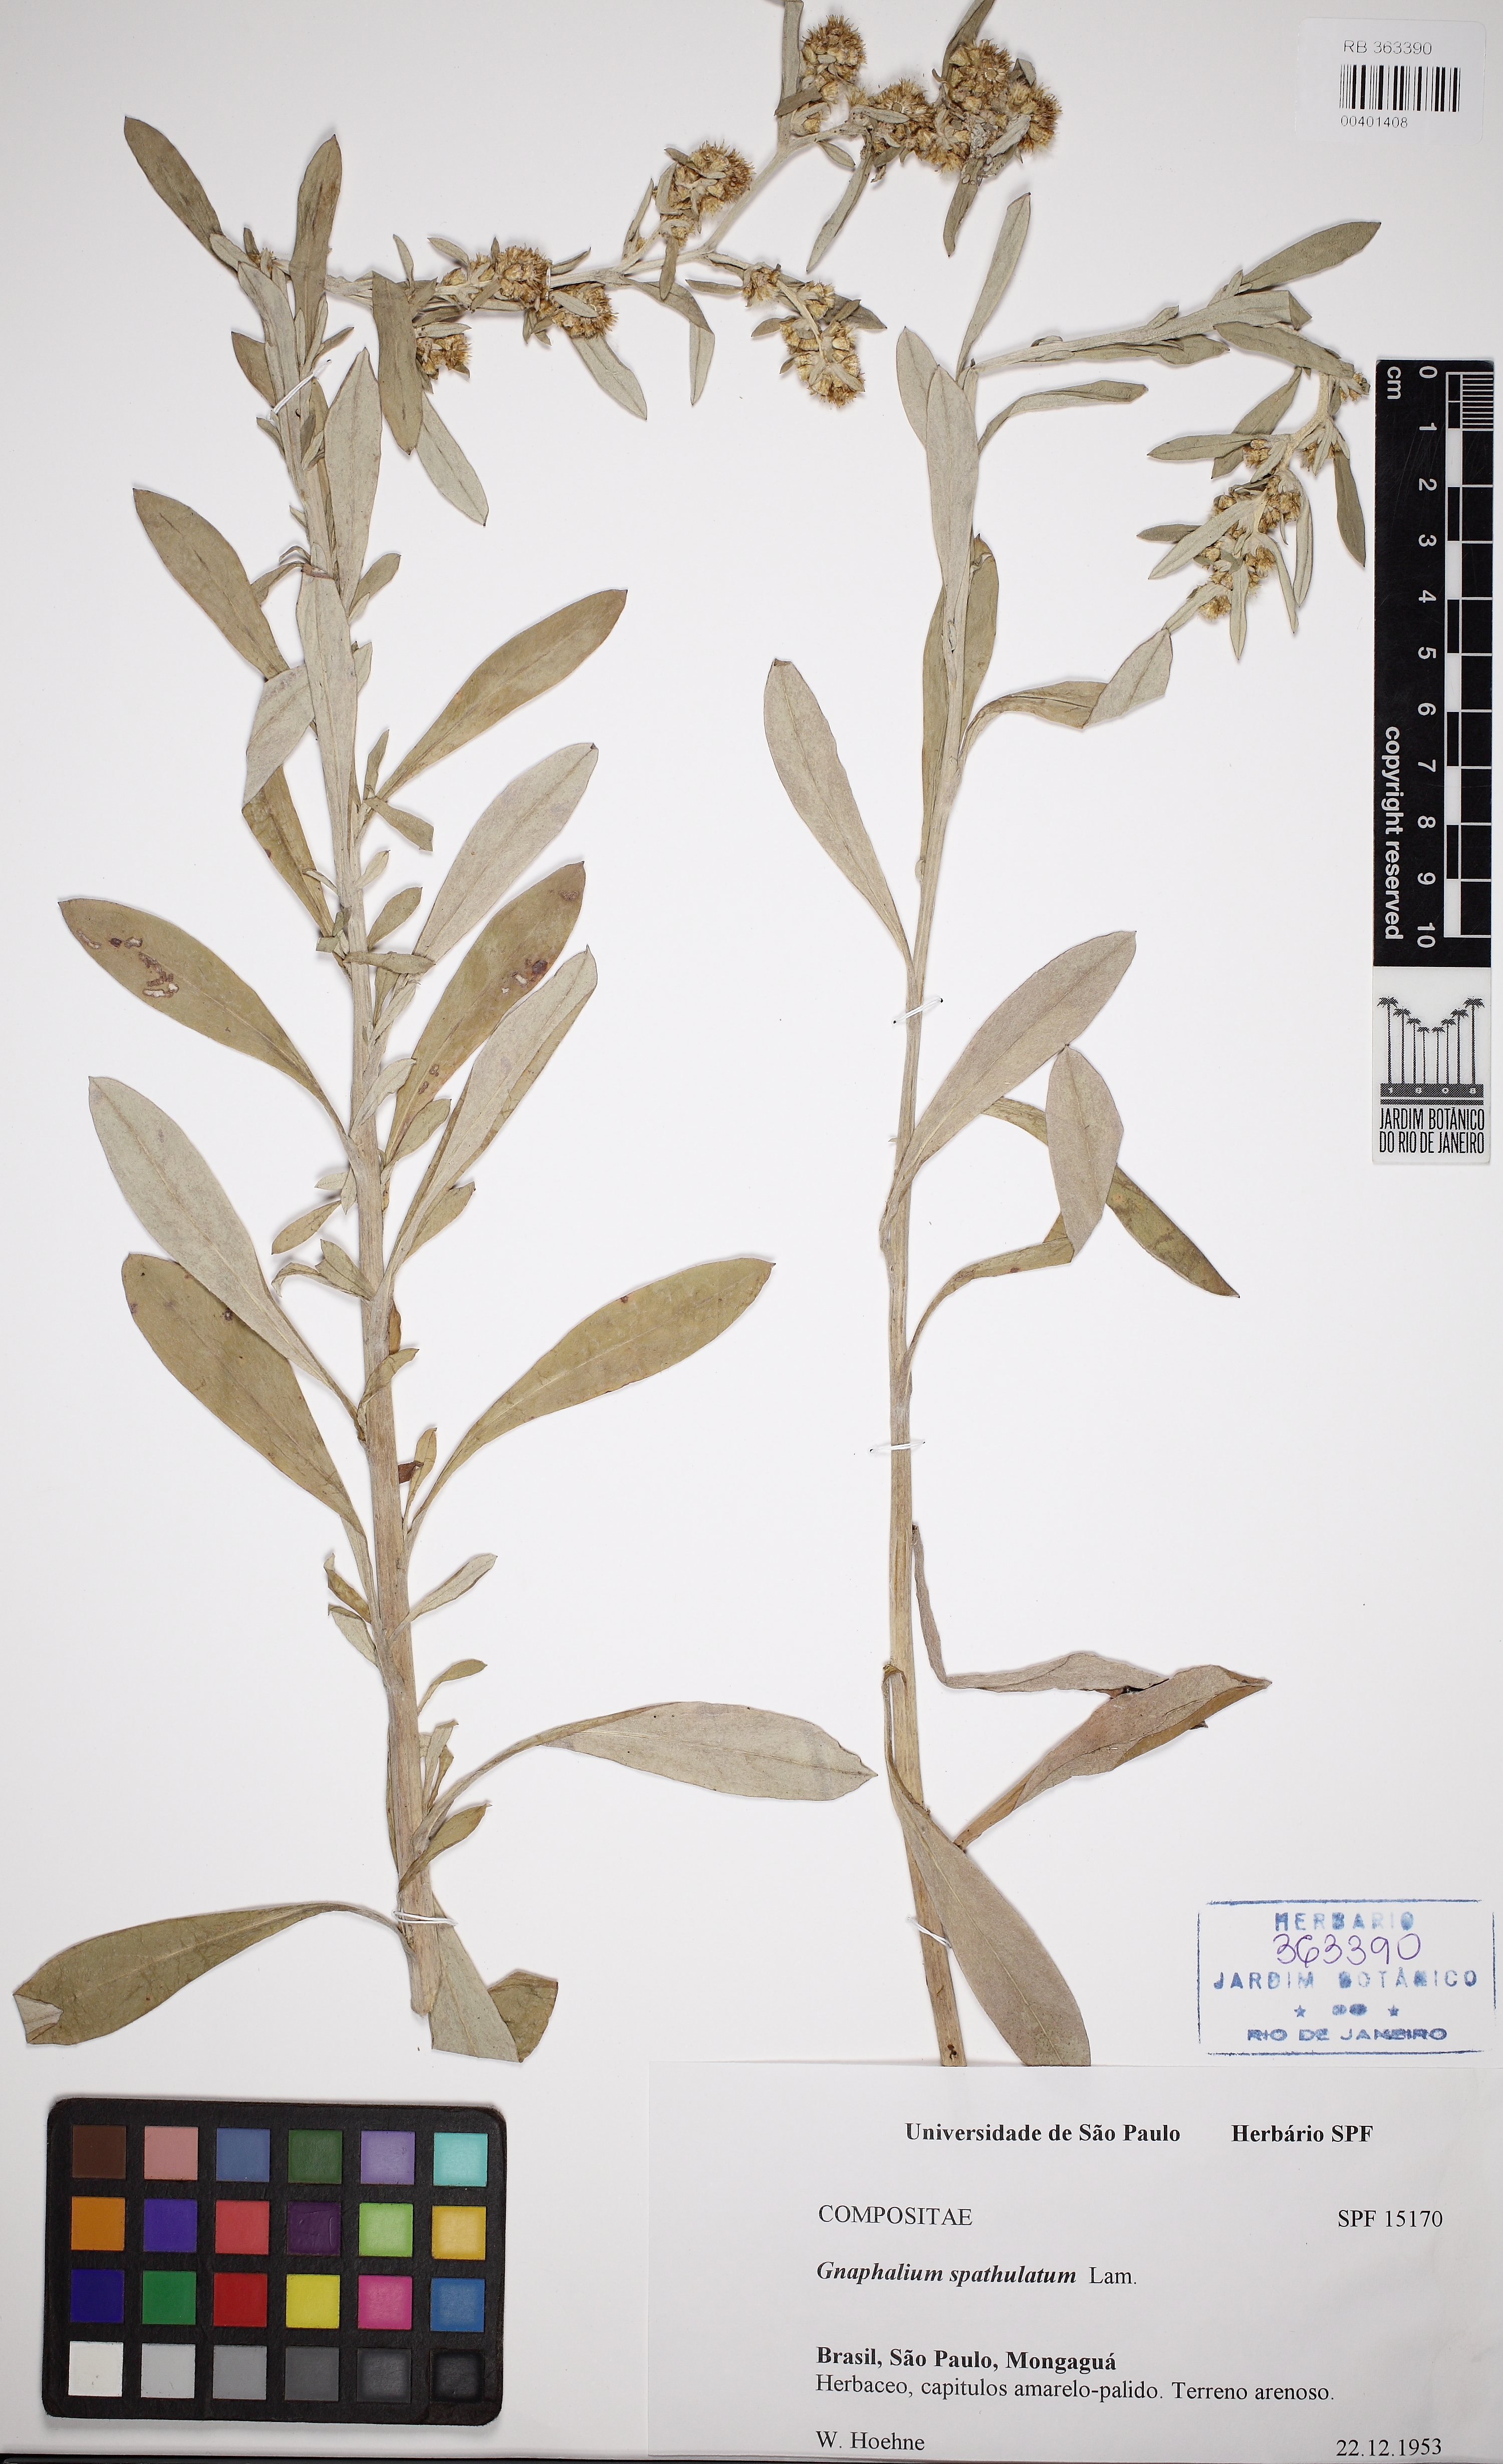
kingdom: Plantae
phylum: Tracheophyta
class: Magnoliopsida
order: Asterales
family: Asteraceae
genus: Pseudognaphalium
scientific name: Pseudognaphalium
